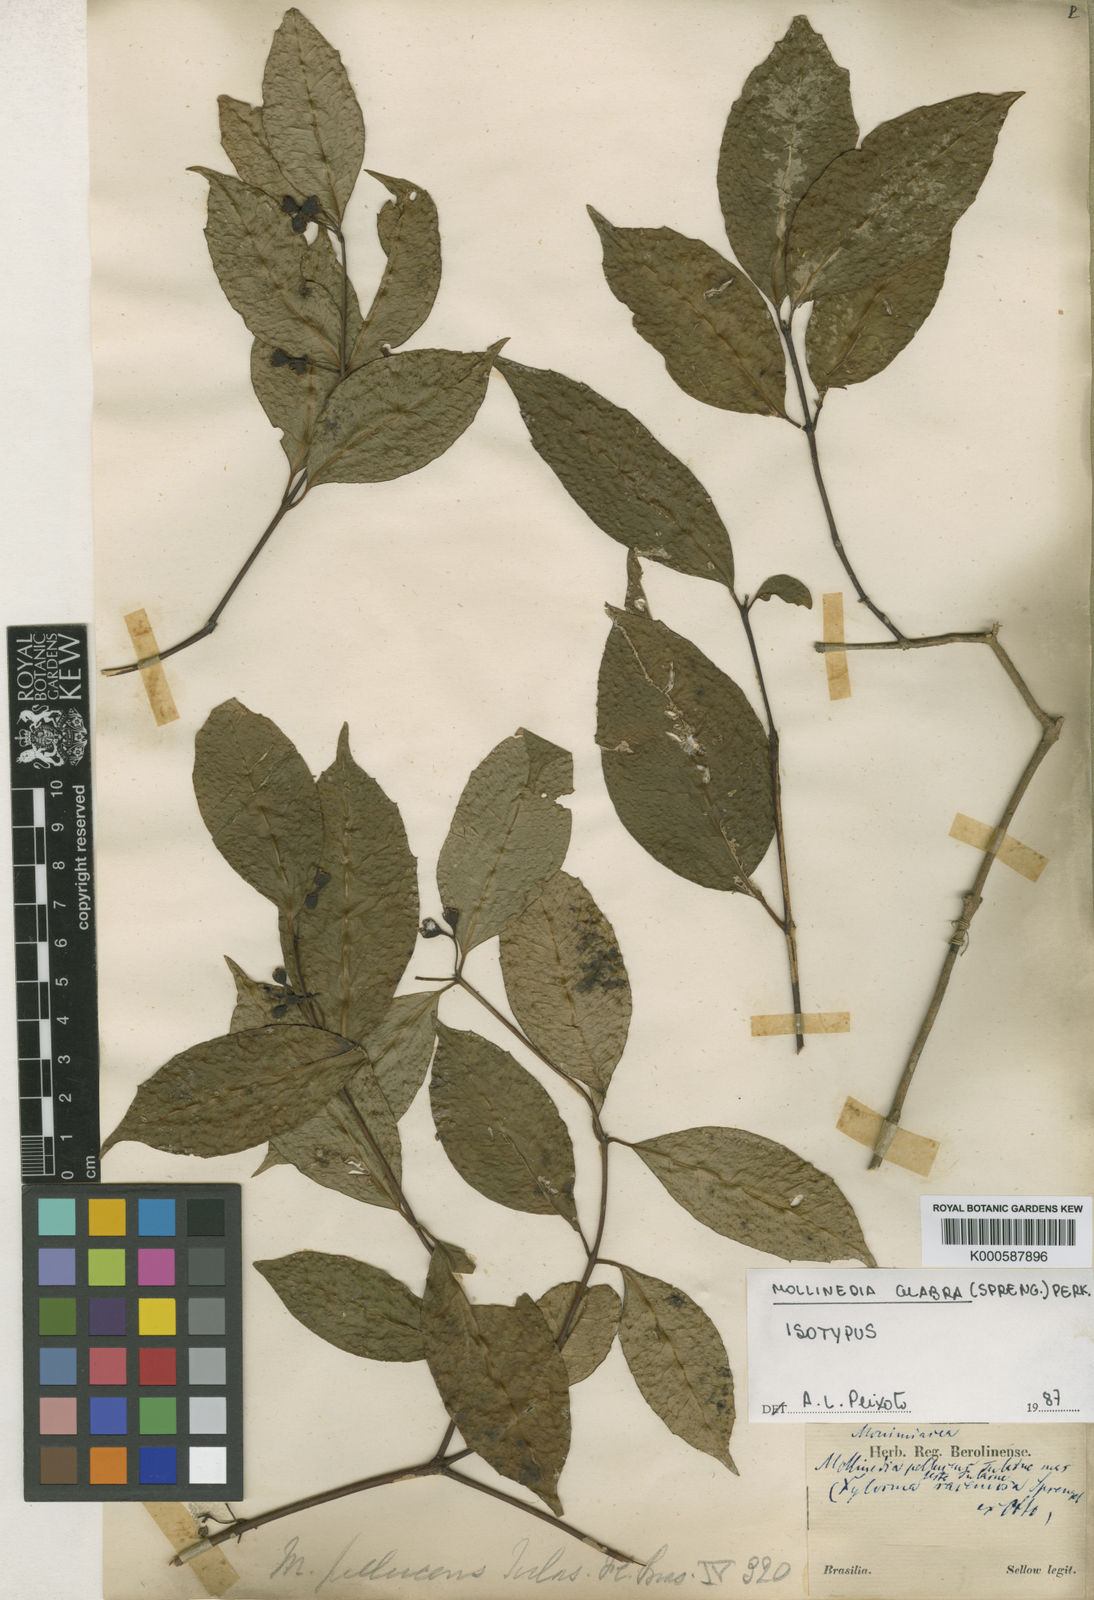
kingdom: Plantae
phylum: Tracheophyta
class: Magnoliopsida
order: Laurales
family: Monimiaceae
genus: Mollinedia
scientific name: Mollinedia glabra
